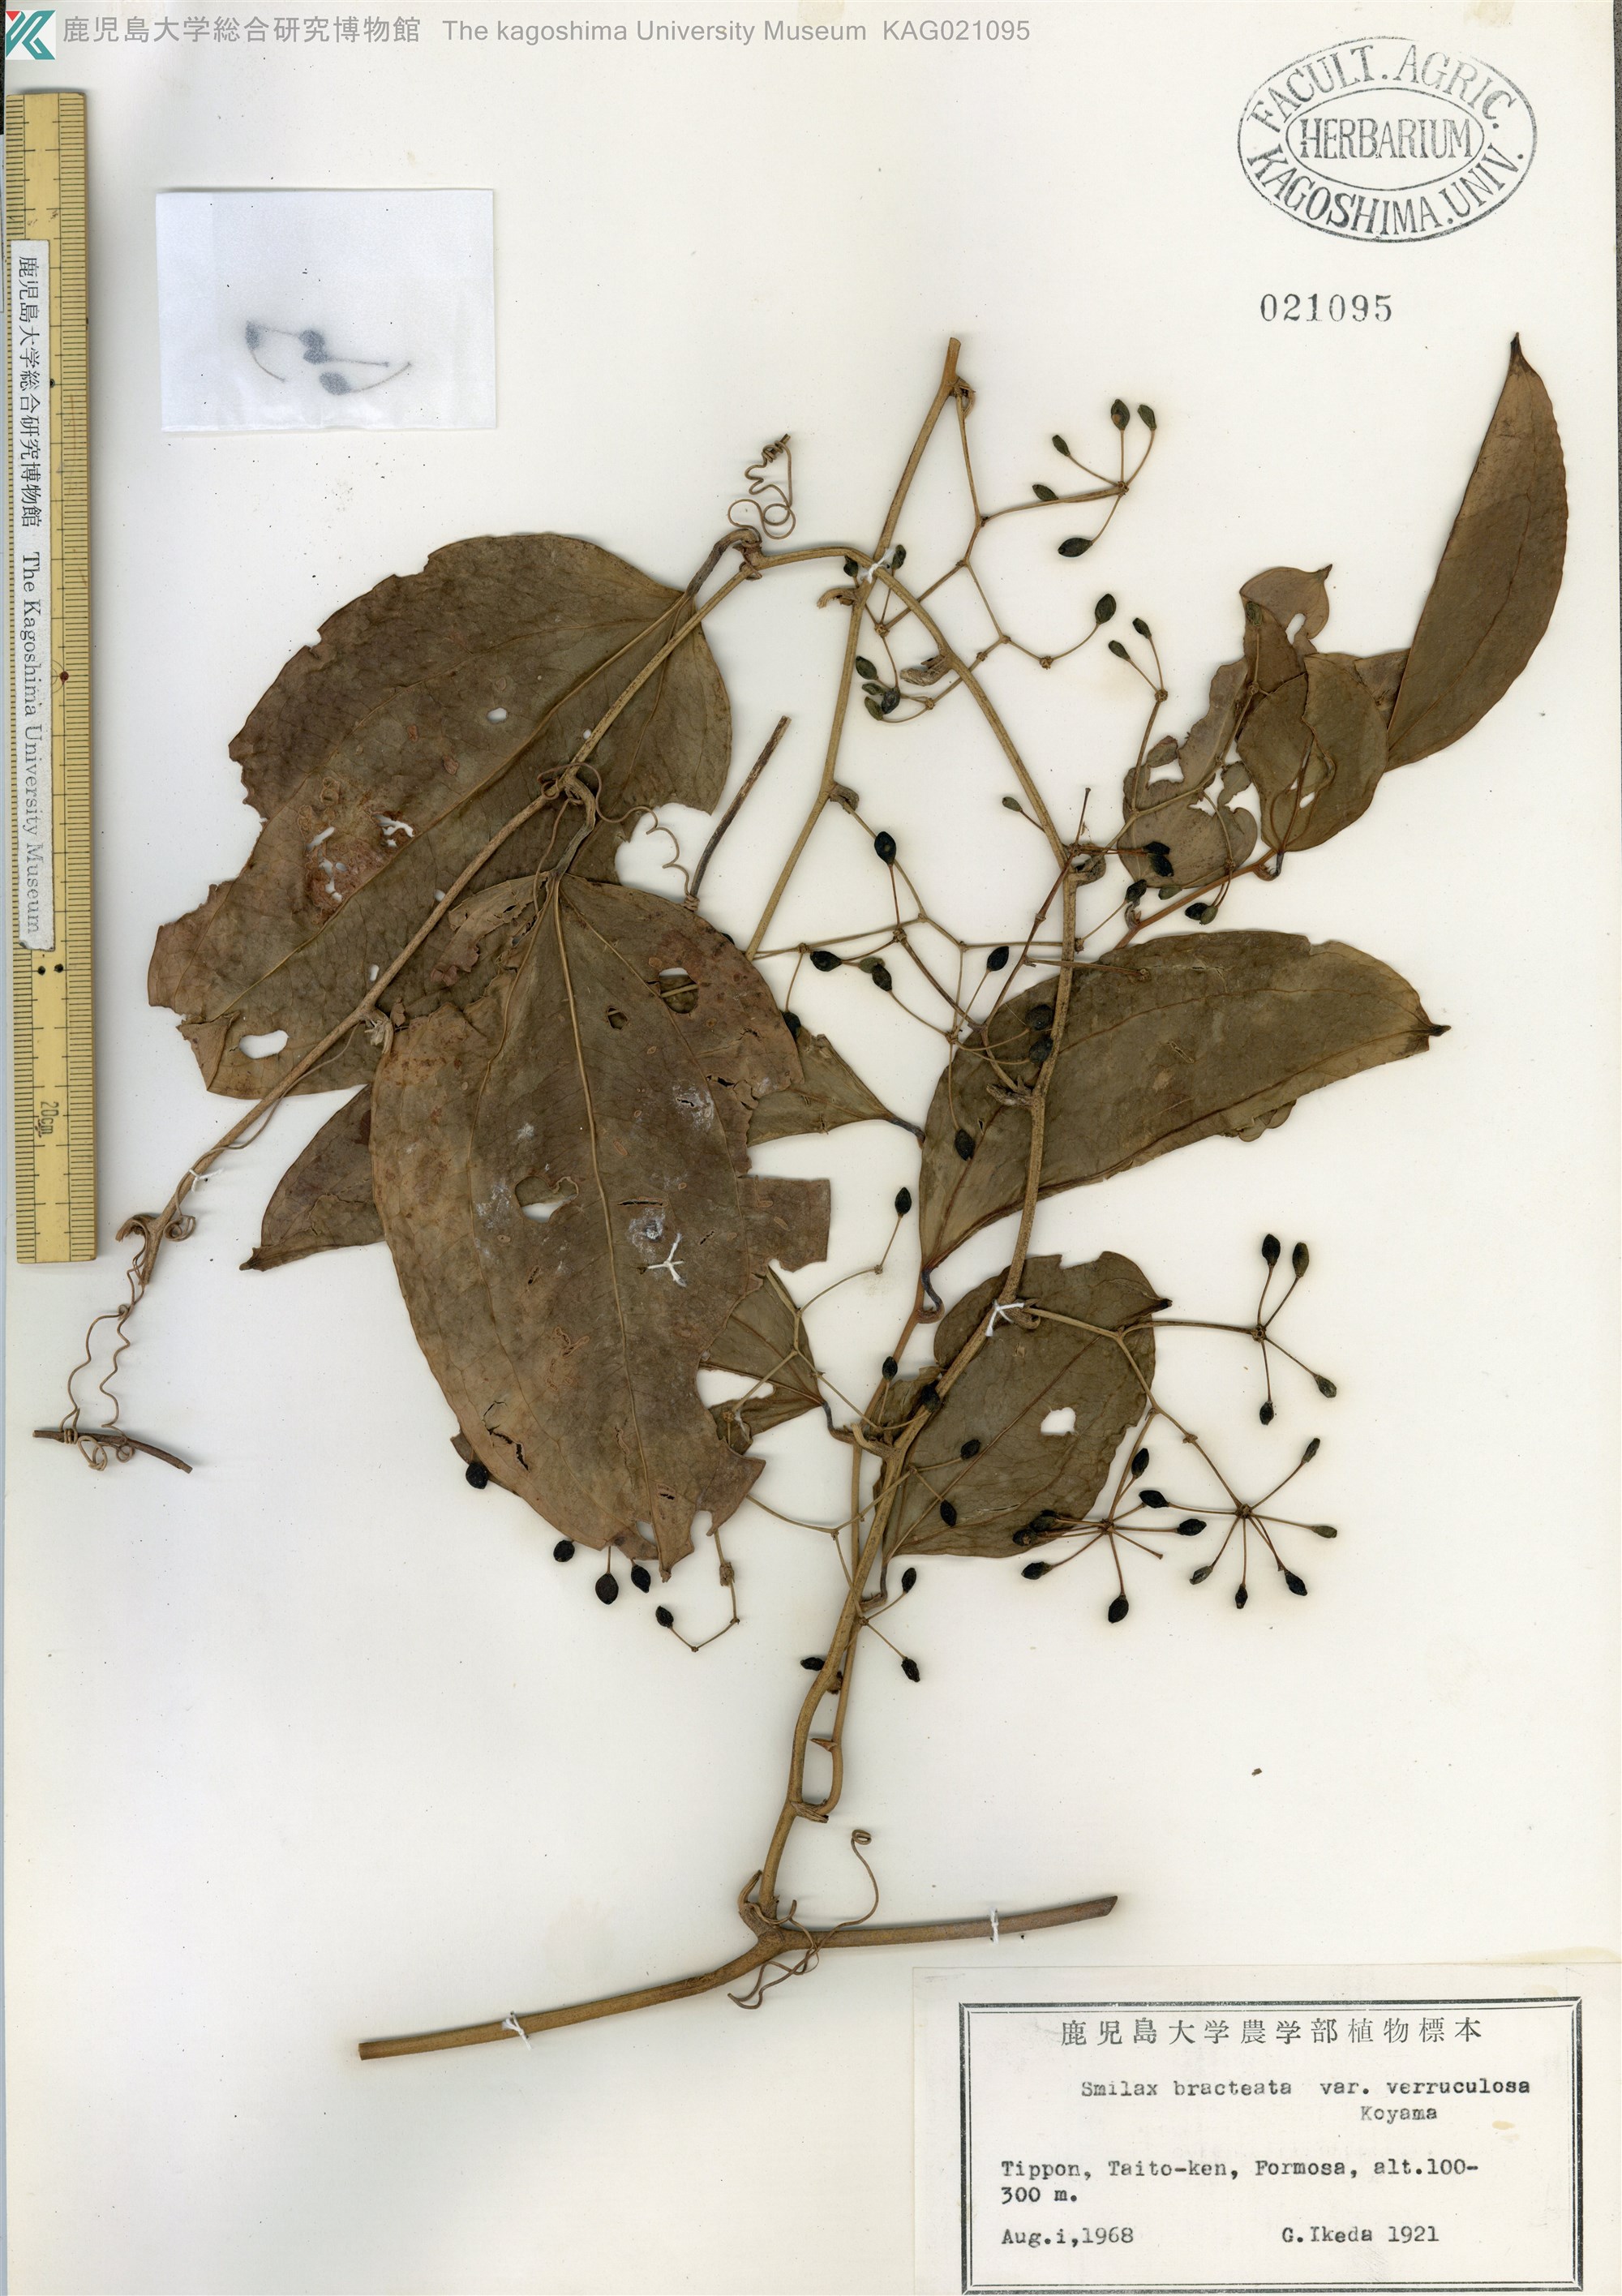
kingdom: Plantae
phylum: Tracheophyta
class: Liliopsida
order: Liliales
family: Smilacaceae
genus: Smilax
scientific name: Smilax bracteata
